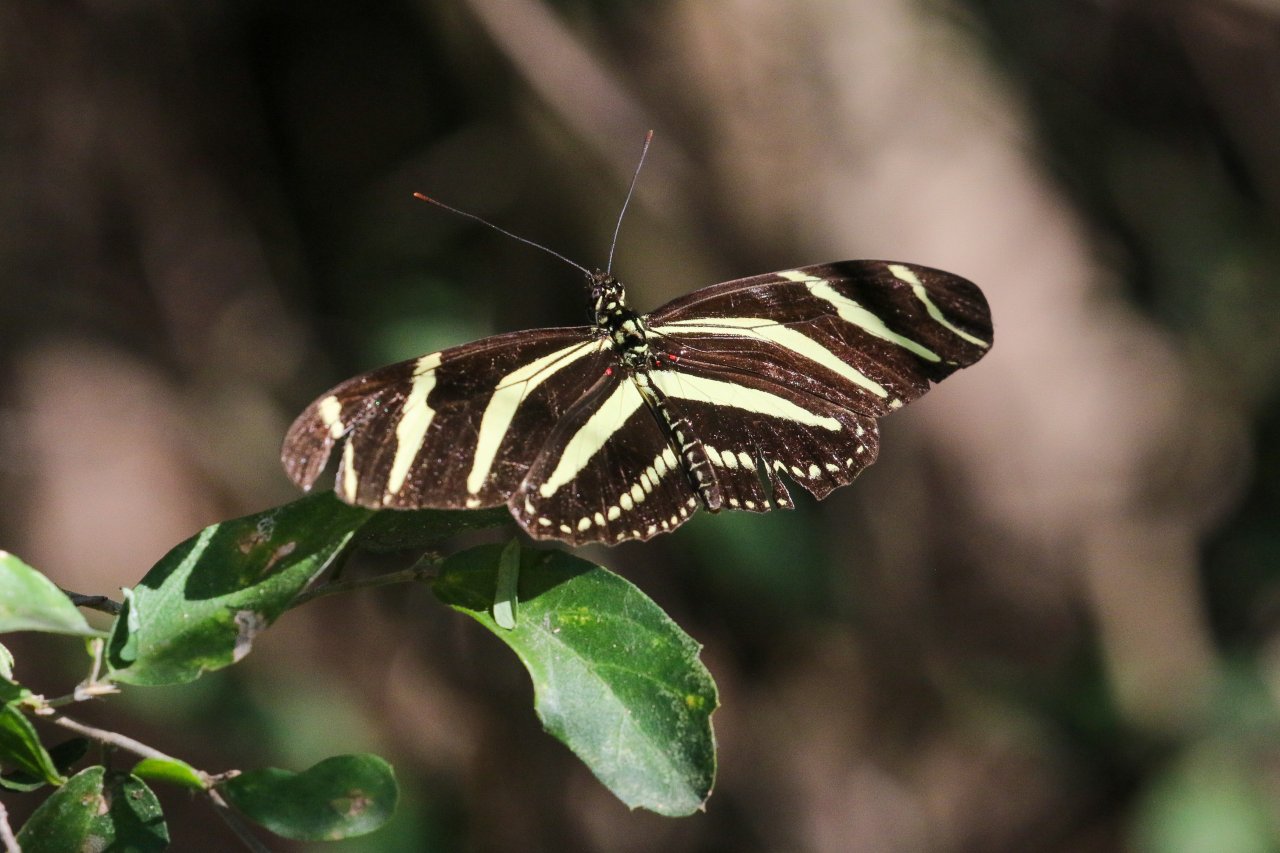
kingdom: Animalia
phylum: Arthropoda
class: Insecta
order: Lepidoptera
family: Nymphalidae
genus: Heliconius
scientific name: Heliconius charithonia
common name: Zebra Longwing
